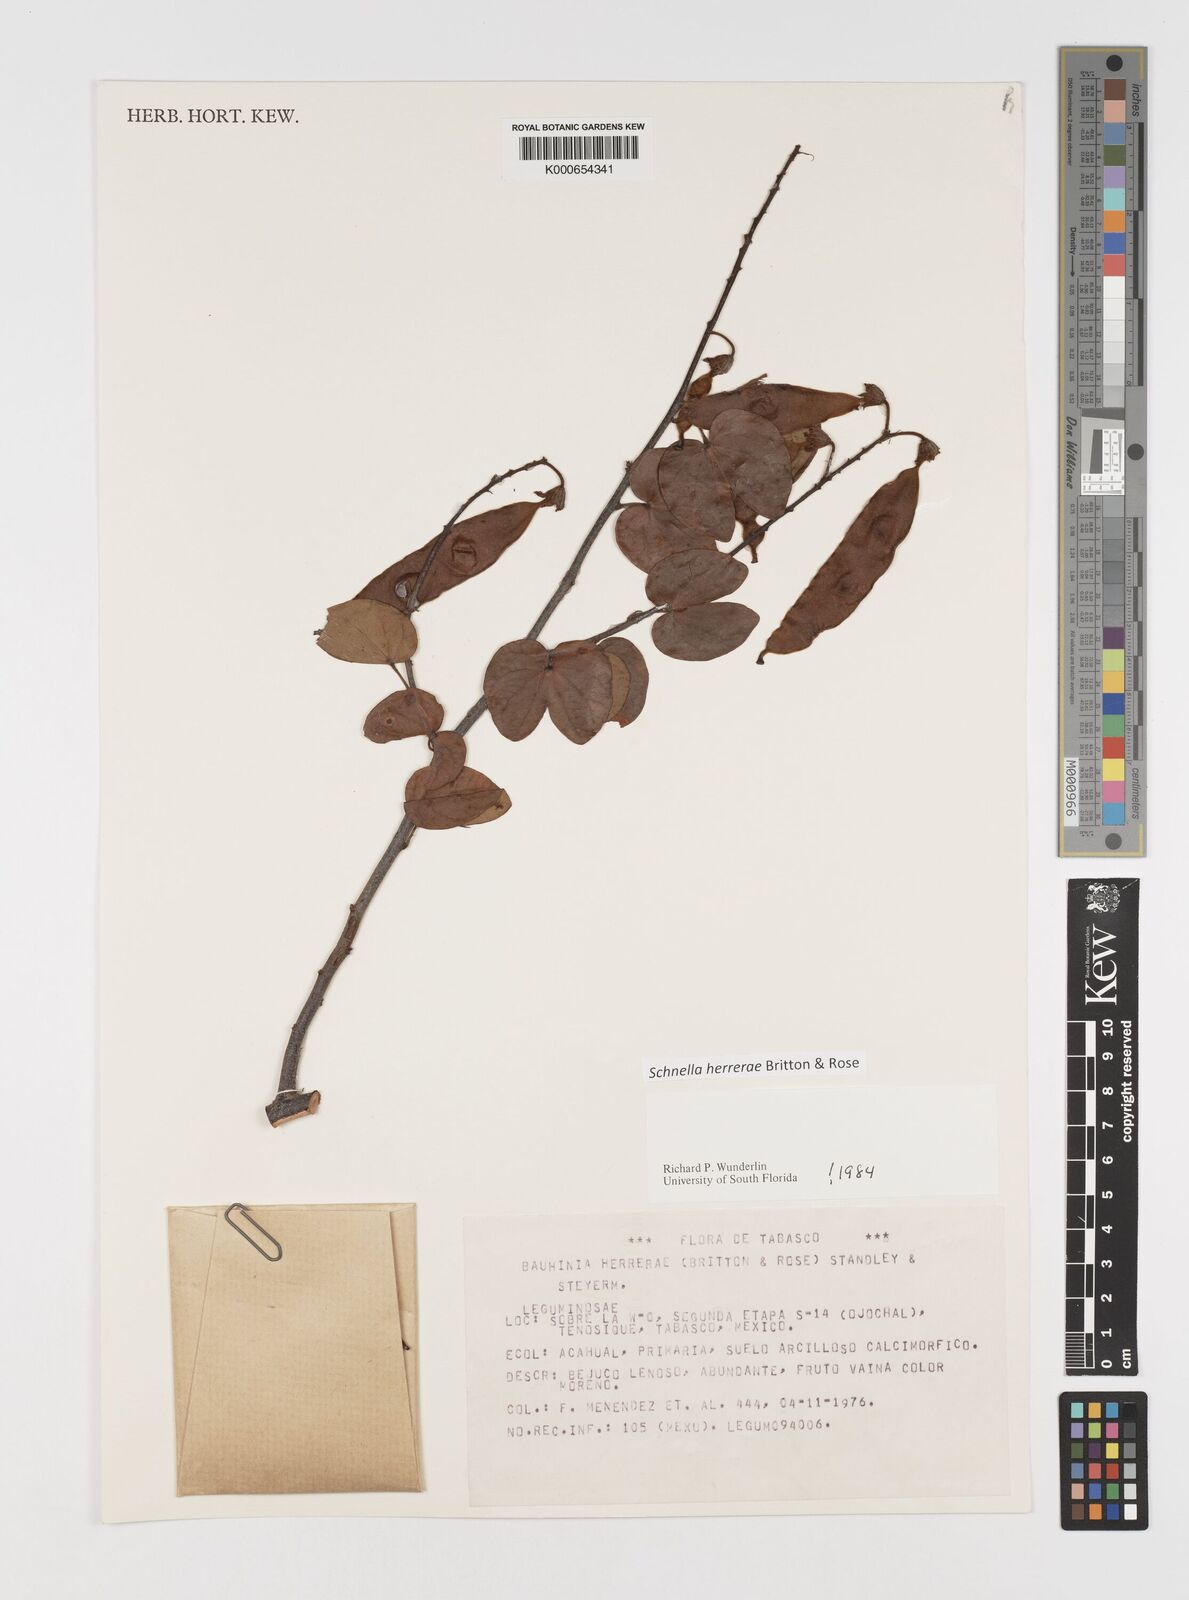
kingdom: Plantae
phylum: Tracheophyta
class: Magnoliopsida
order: Fabales
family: Fabaceae
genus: Schnella
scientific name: Schnella herrerae
